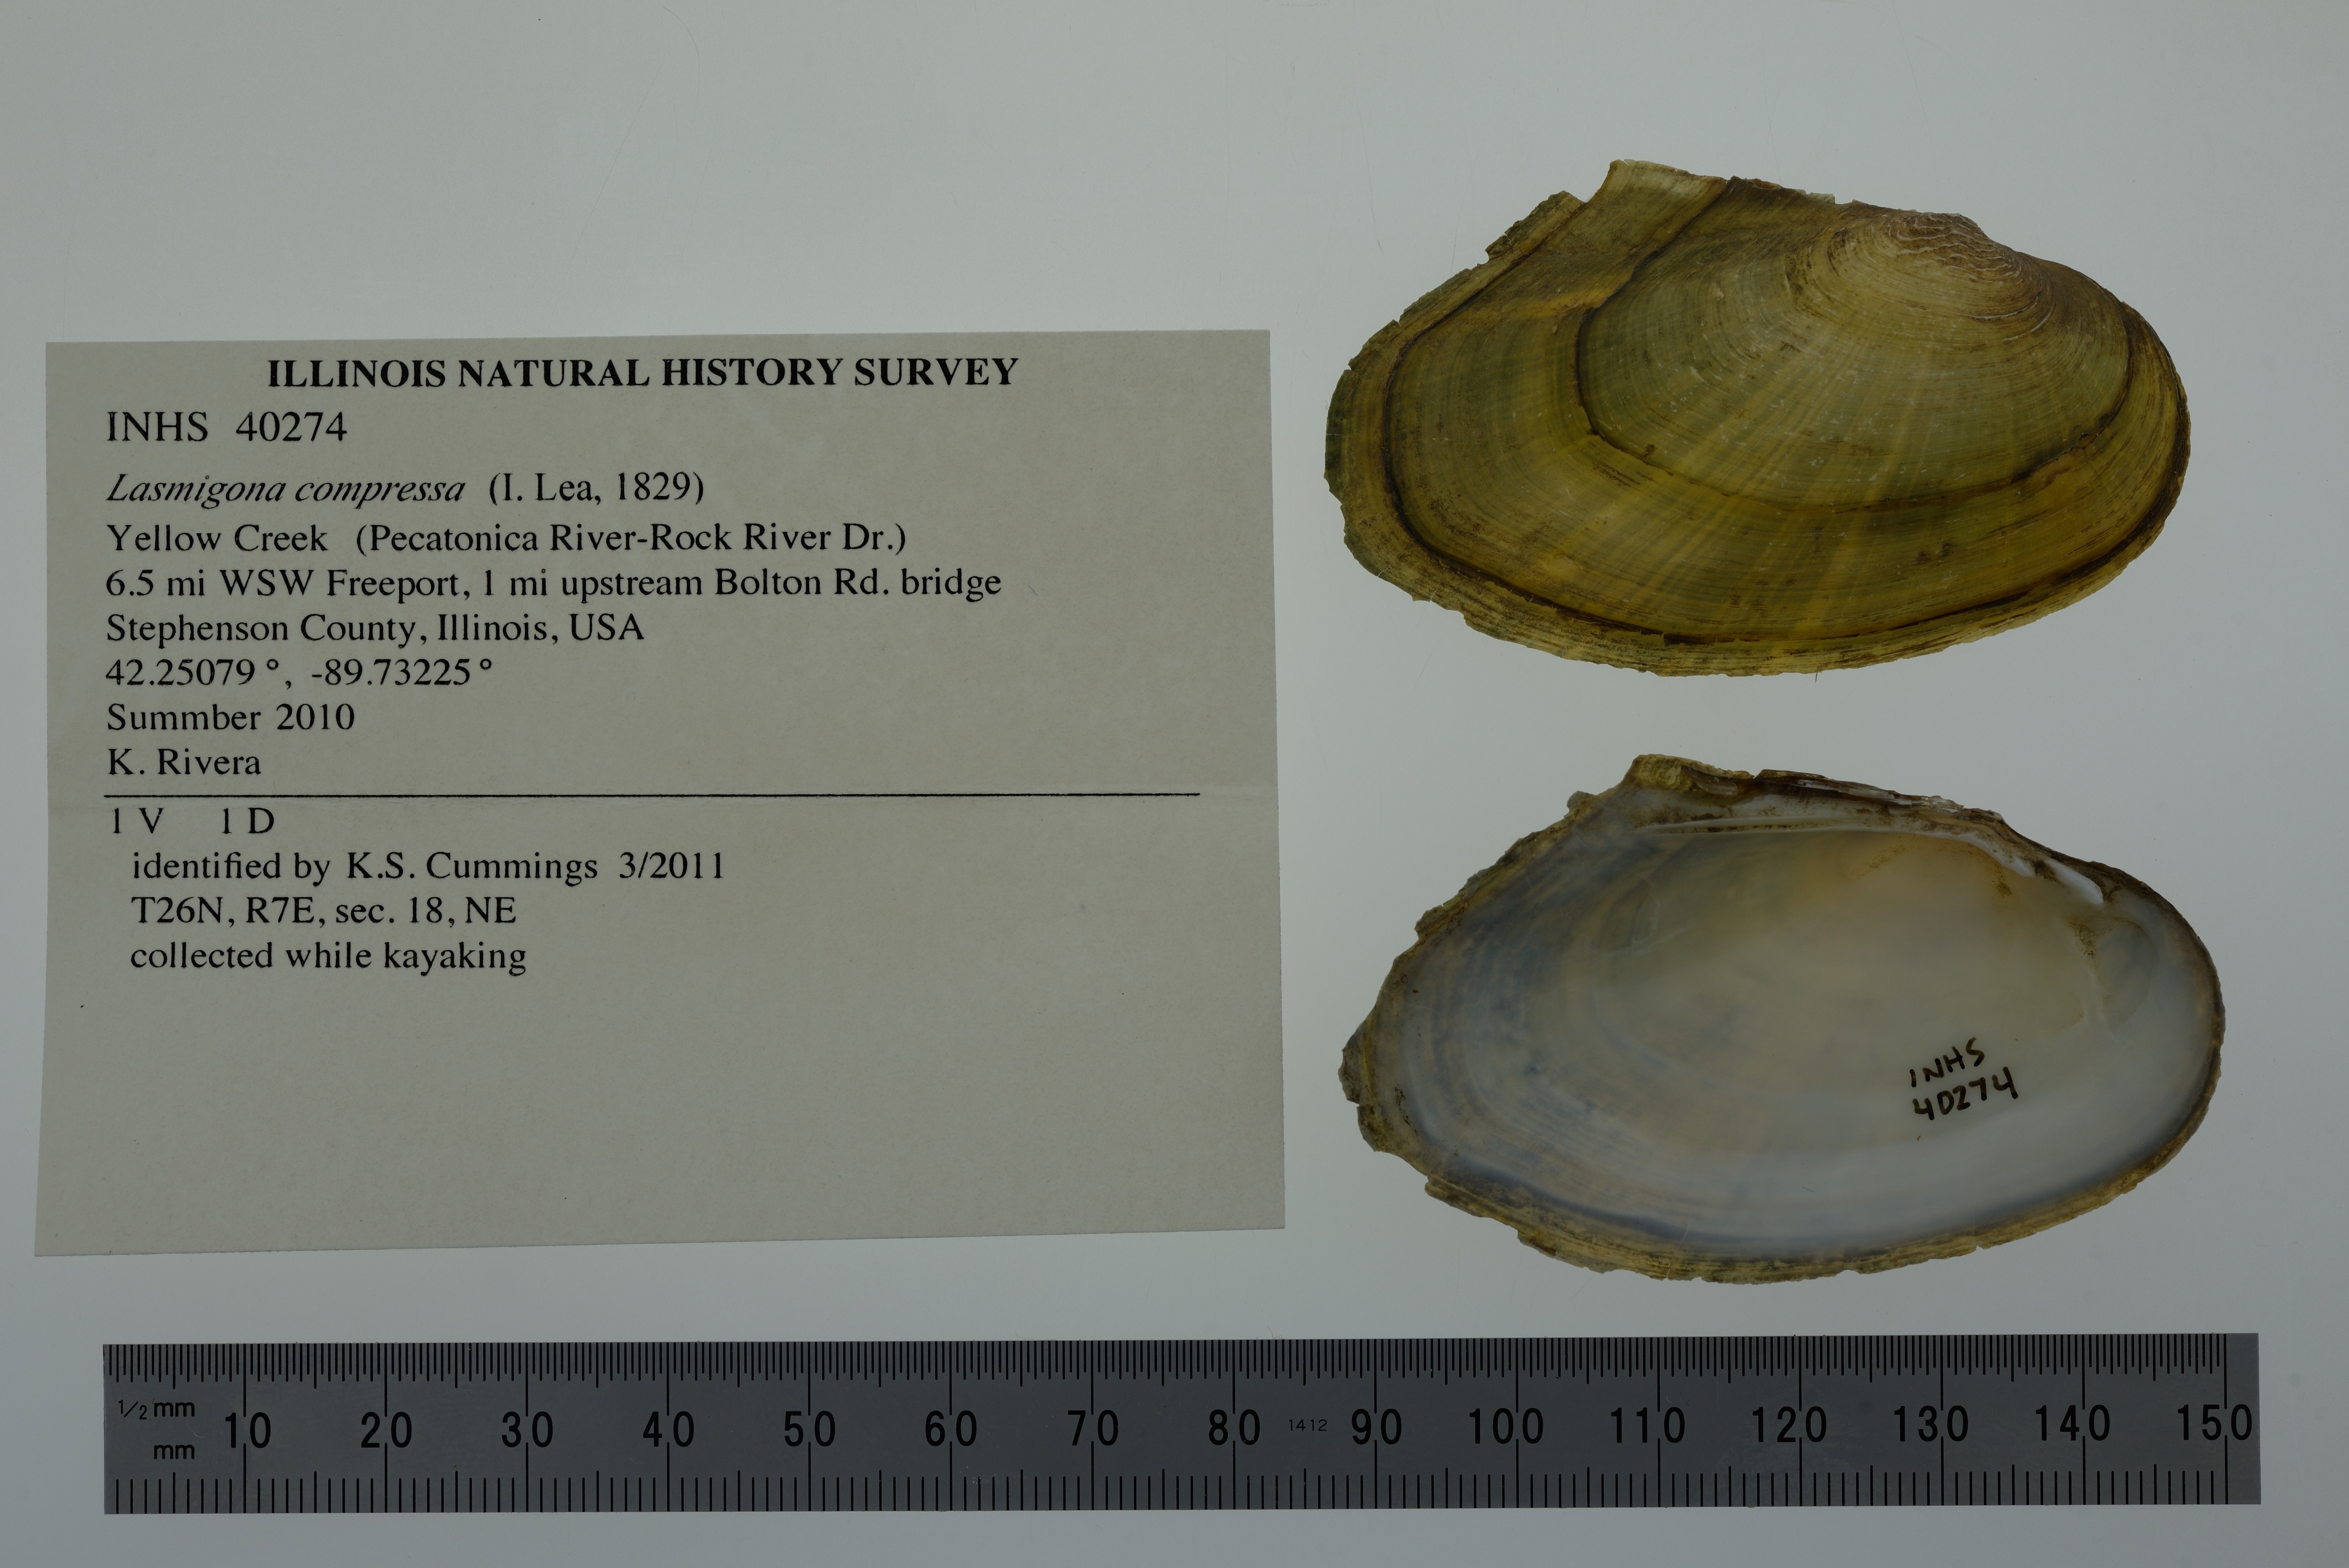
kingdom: Animalia
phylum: Mollusca
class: Bivalvia
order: Unionida
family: Unionidae
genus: Lasmigona
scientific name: Lasmigona compressa
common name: Creek heelsplitter
